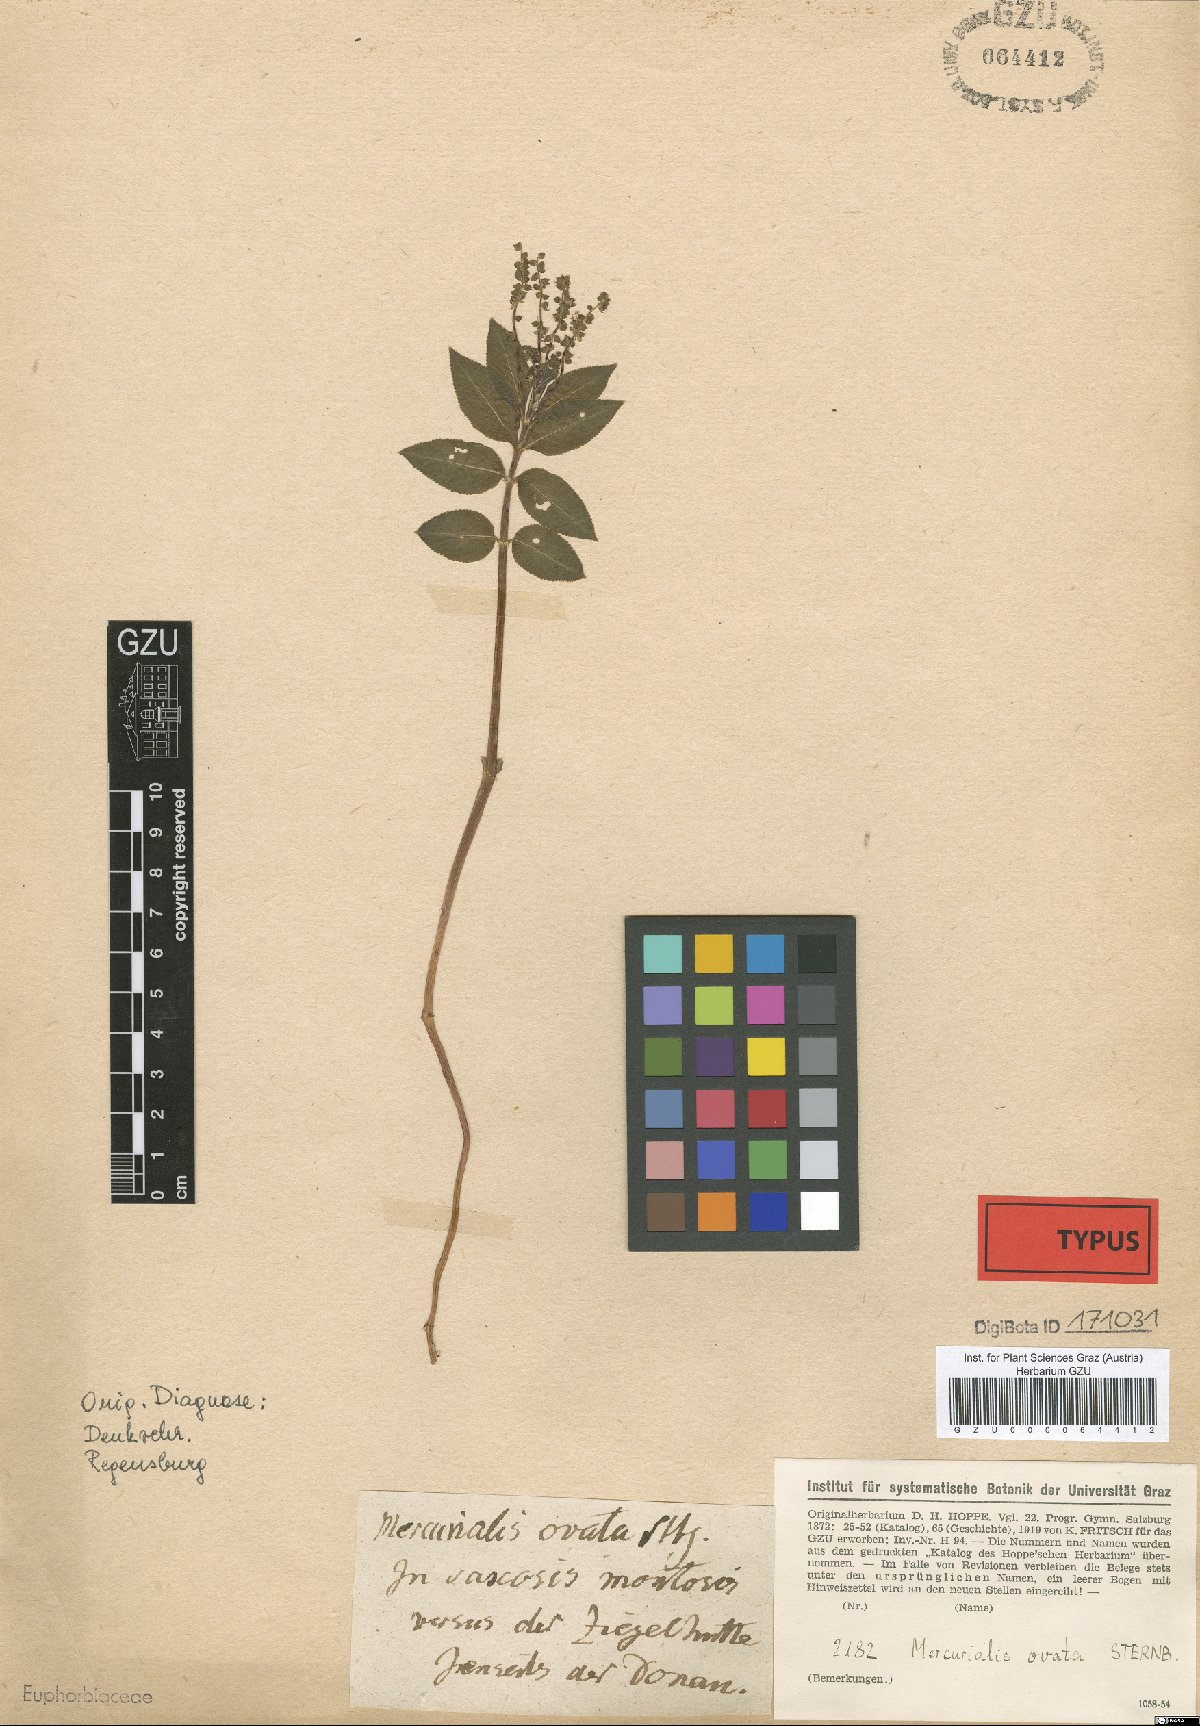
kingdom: Plantae
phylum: Tracheophyta
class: Magnoliopsida
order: Malpighiales
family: Euphorbiaceae
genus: Mercurialis
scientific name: Mercurialis ovata
